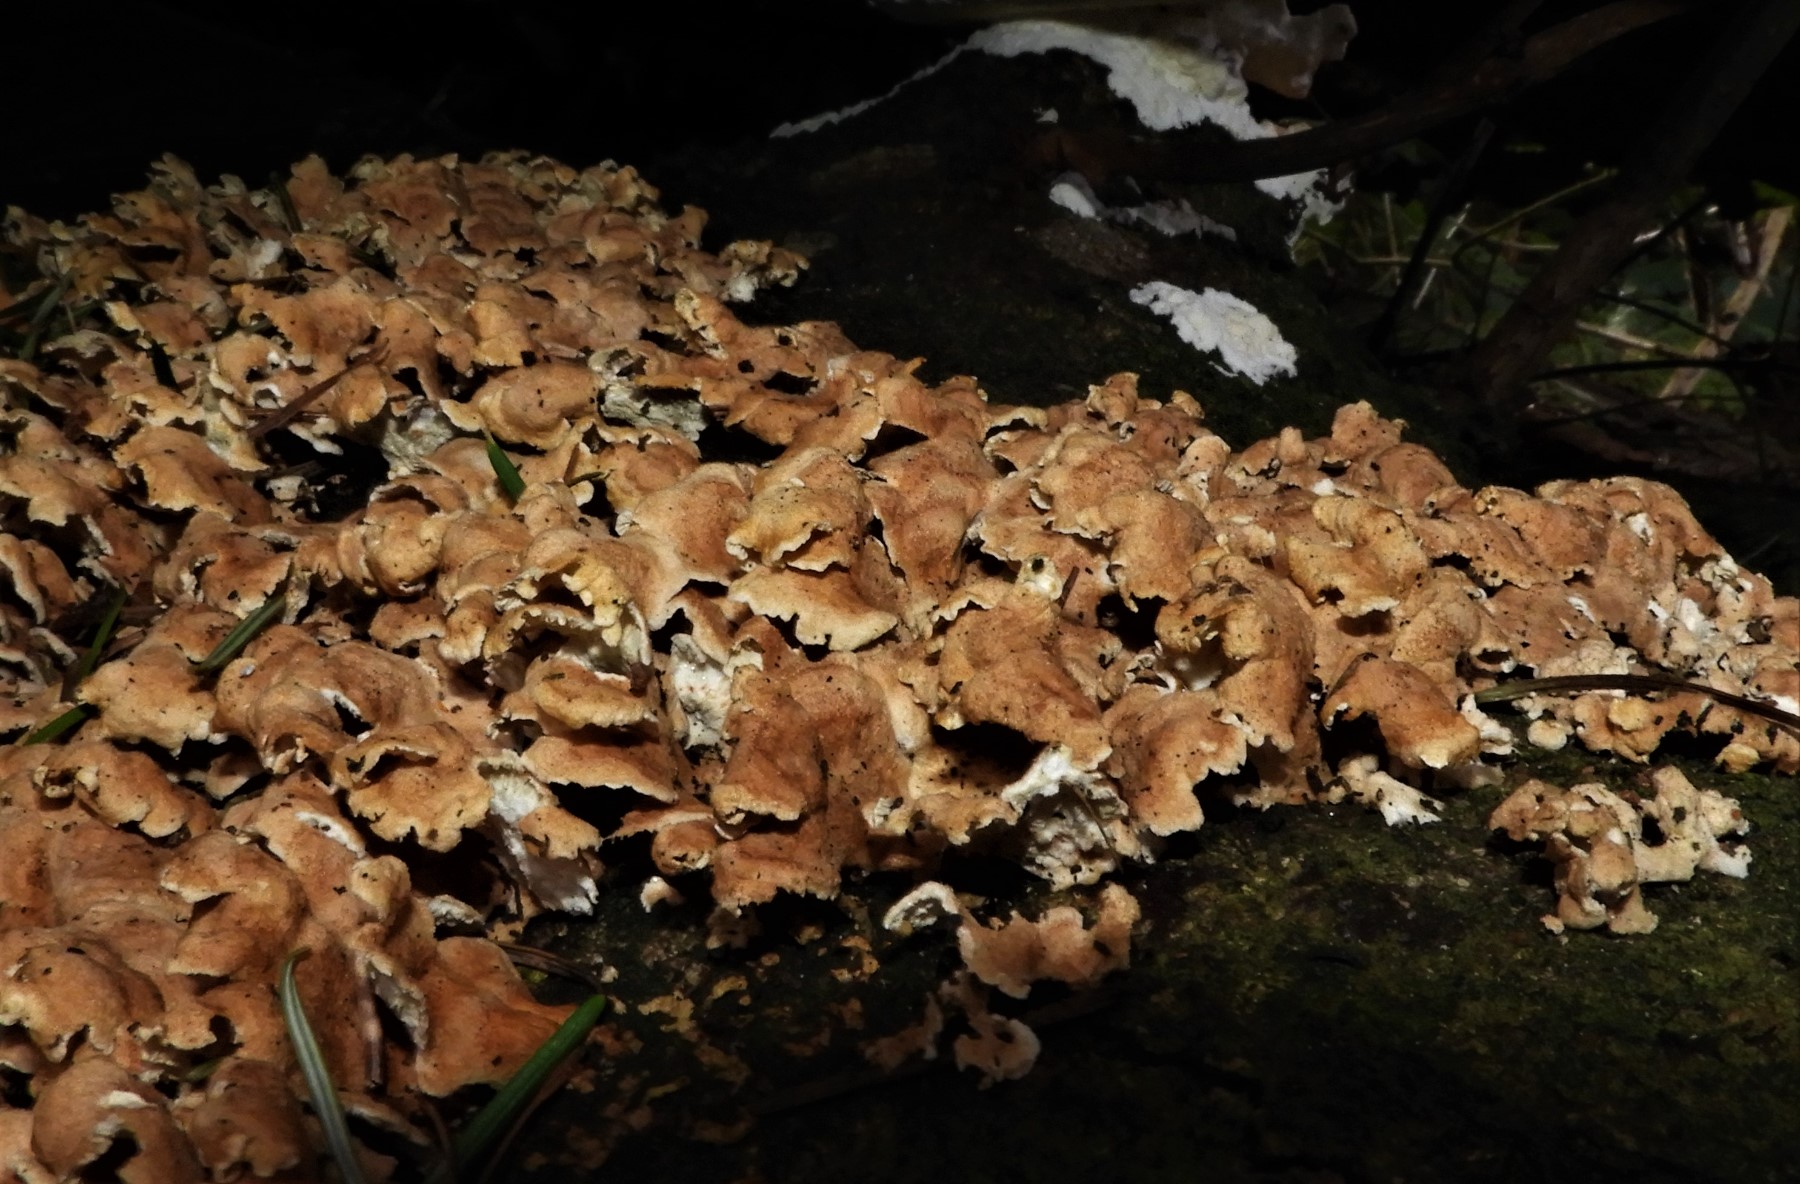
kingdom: Fungi
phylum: Basidiomycota
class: Agaricomycetes
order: Amylocorticiales
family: Amylocorticiaceae
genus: Plicaturopsis
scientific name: Plicaturopsis crispa
